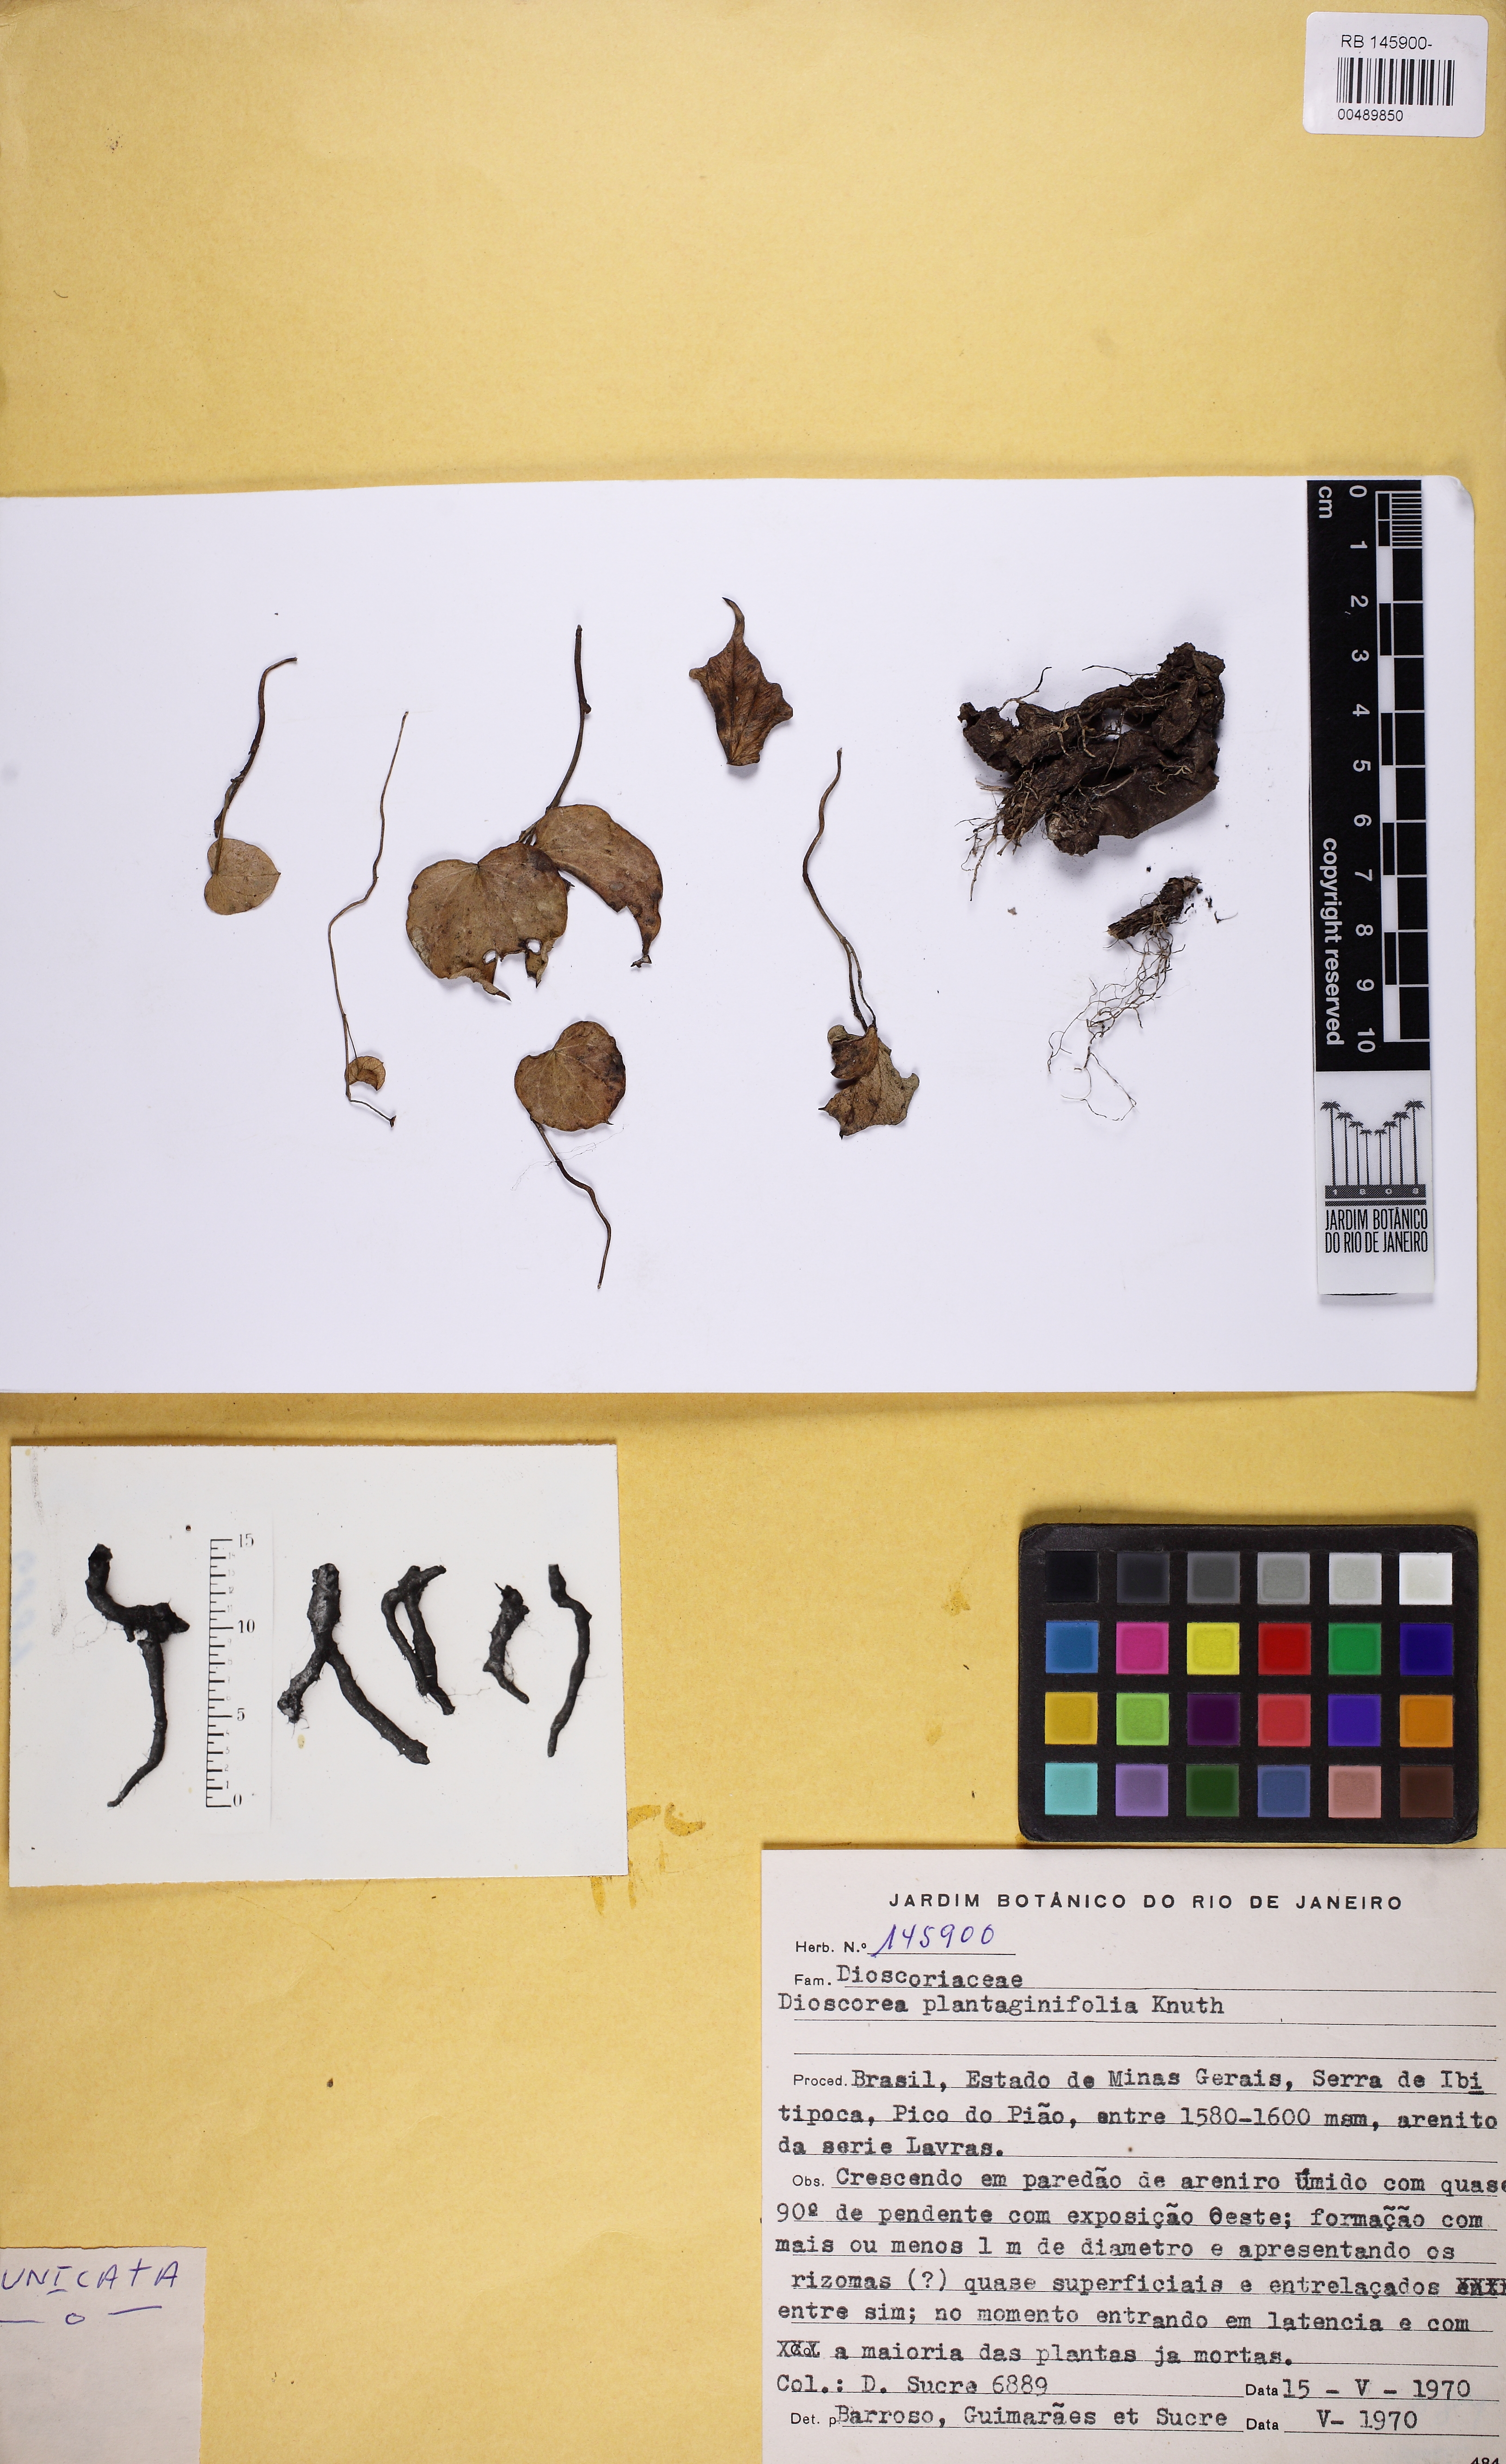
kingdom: Plantae
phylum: Tracheophyta
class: Liliopsida
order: Dioscoreales
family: Dioscoreaceae
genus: Dioscorea
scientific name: Dioscorea perdicum
